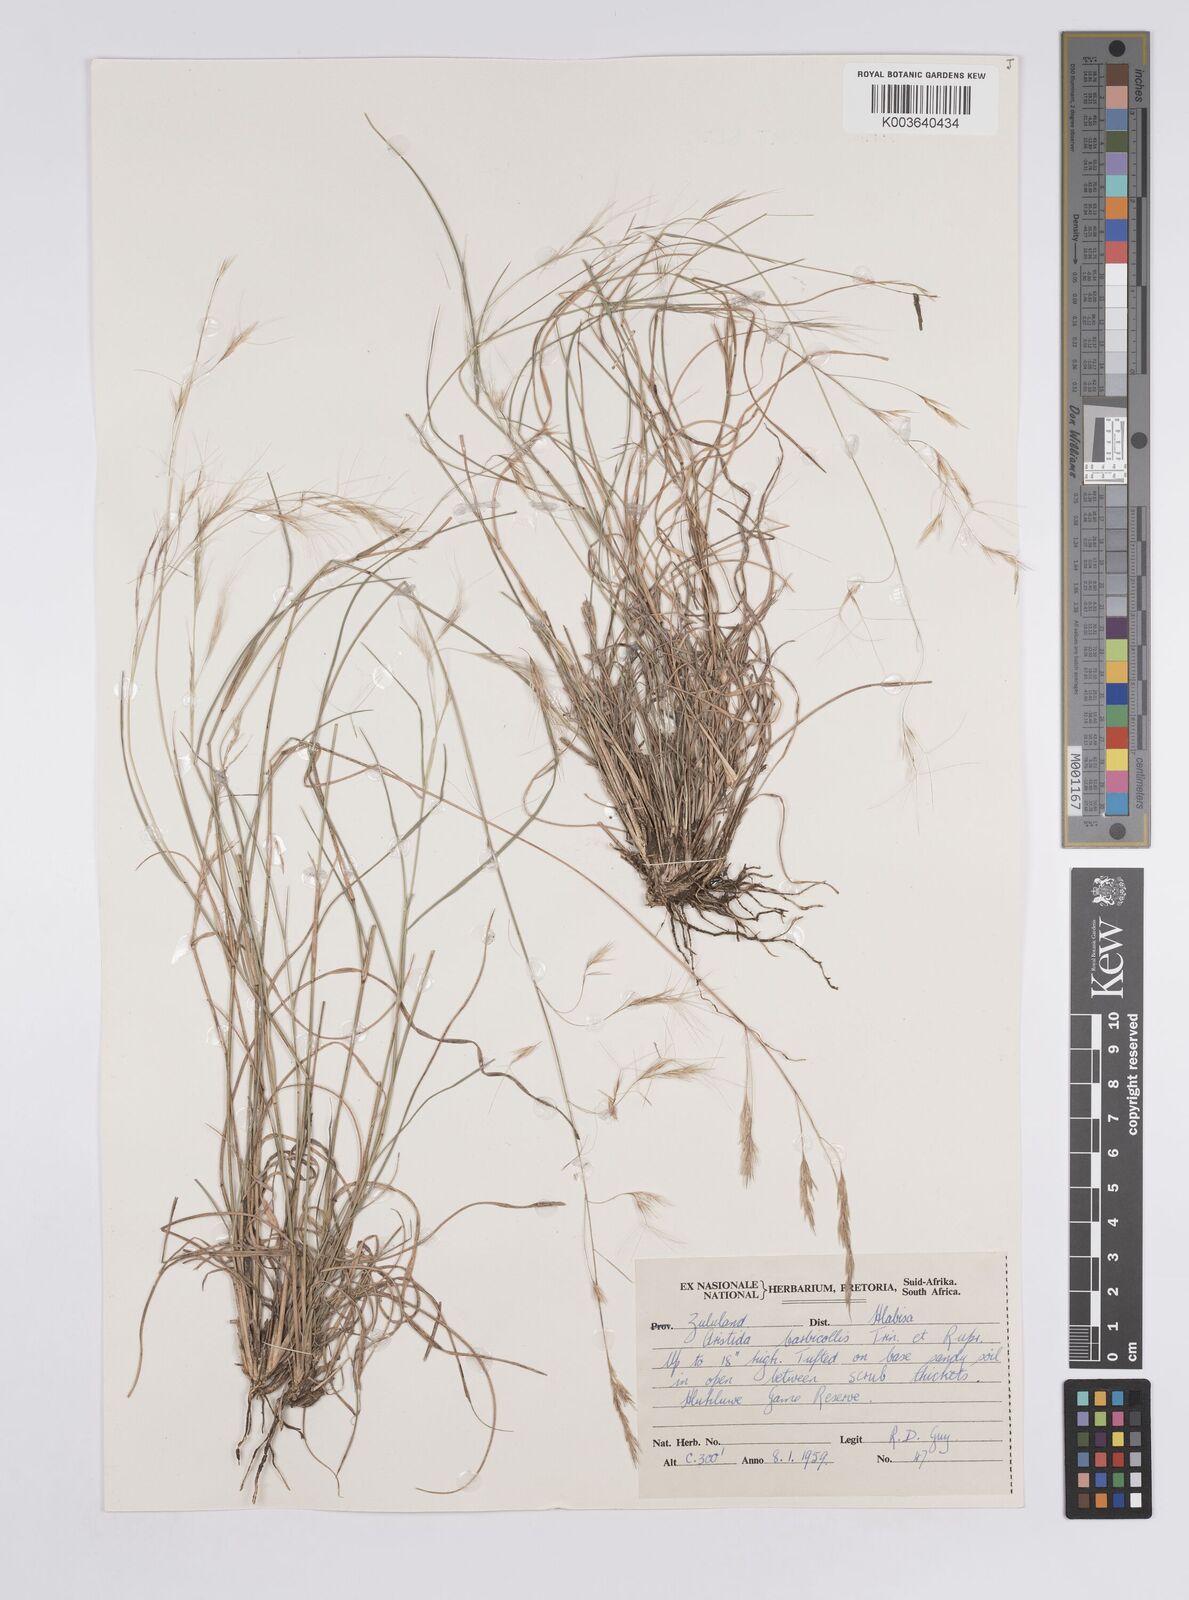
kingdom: Plantae
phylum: Tracheophyta
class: Liliopsida
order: Poales
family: Poaceae
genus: Aristida
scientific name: Aristida barbicollis
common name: Spreading prickle grass
